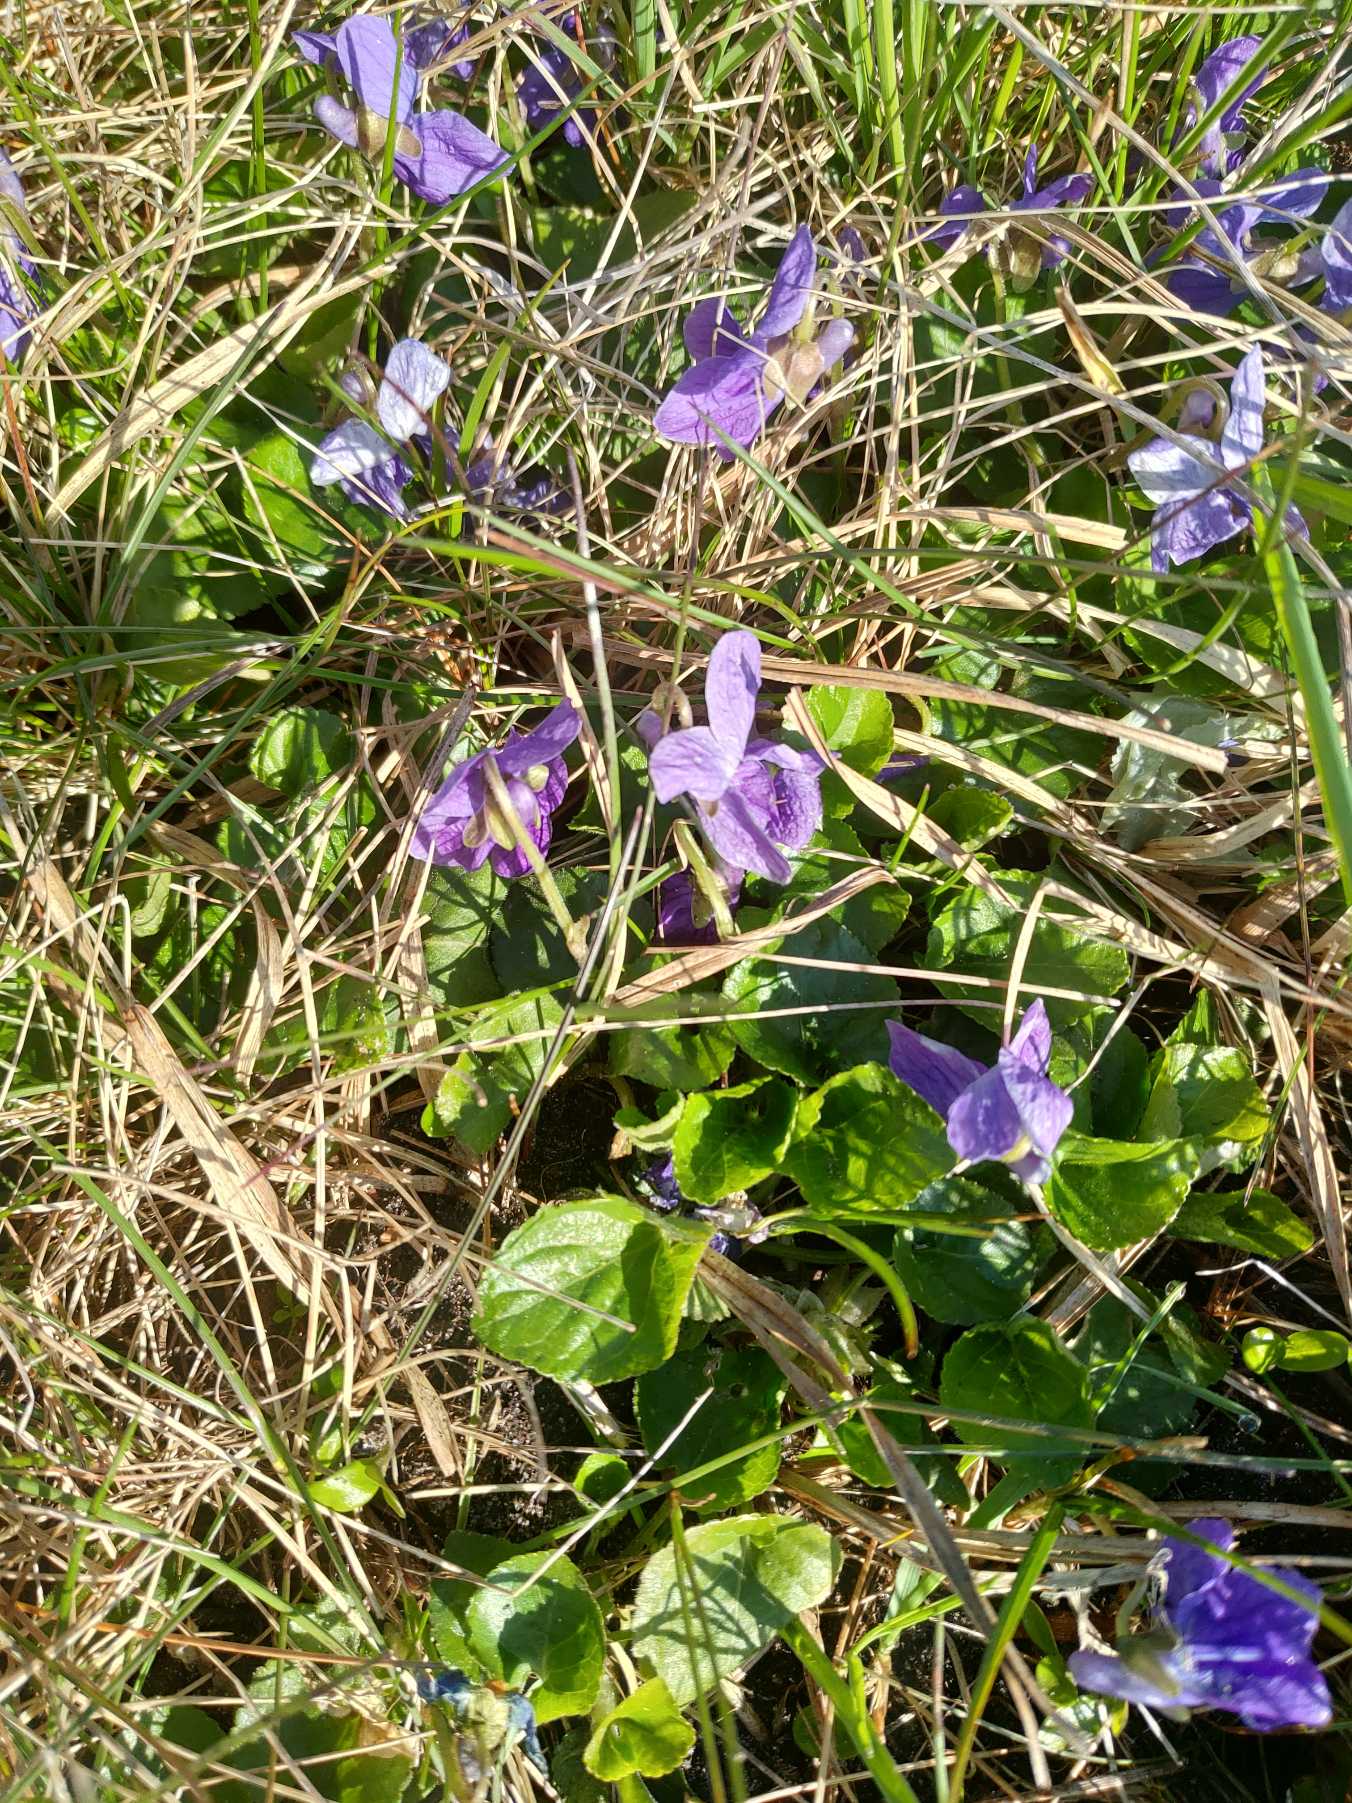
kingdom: Plantae
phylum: Tracheophyta
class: Magnoliopsida
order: Malpighiales
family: Violaceae
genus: Viola
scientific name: Viola odorata
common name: Marts-viol
